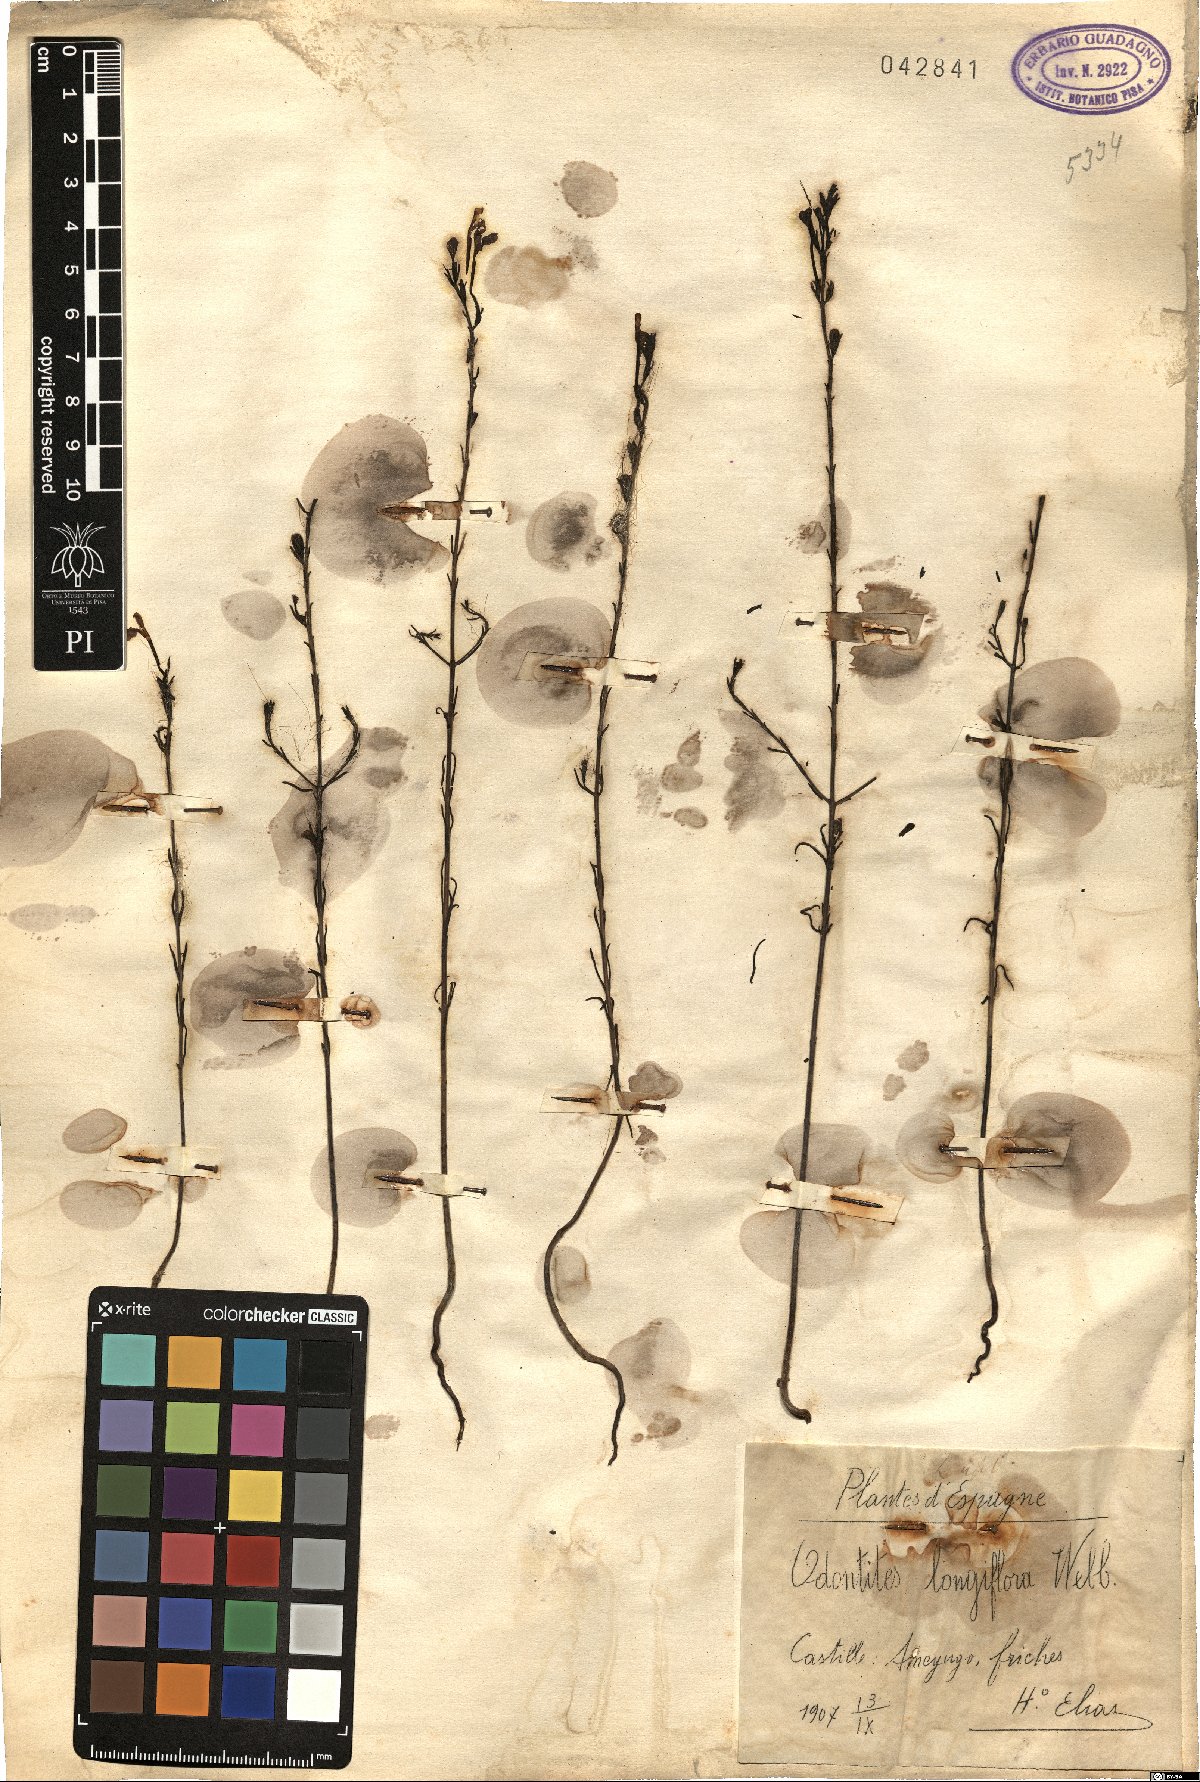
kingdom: Plantae
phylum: Tracheophyta
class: Magnoliopsida
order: Lamiales
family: Orobanchaceae
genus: Odontites
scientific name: Odontites longiflorus
